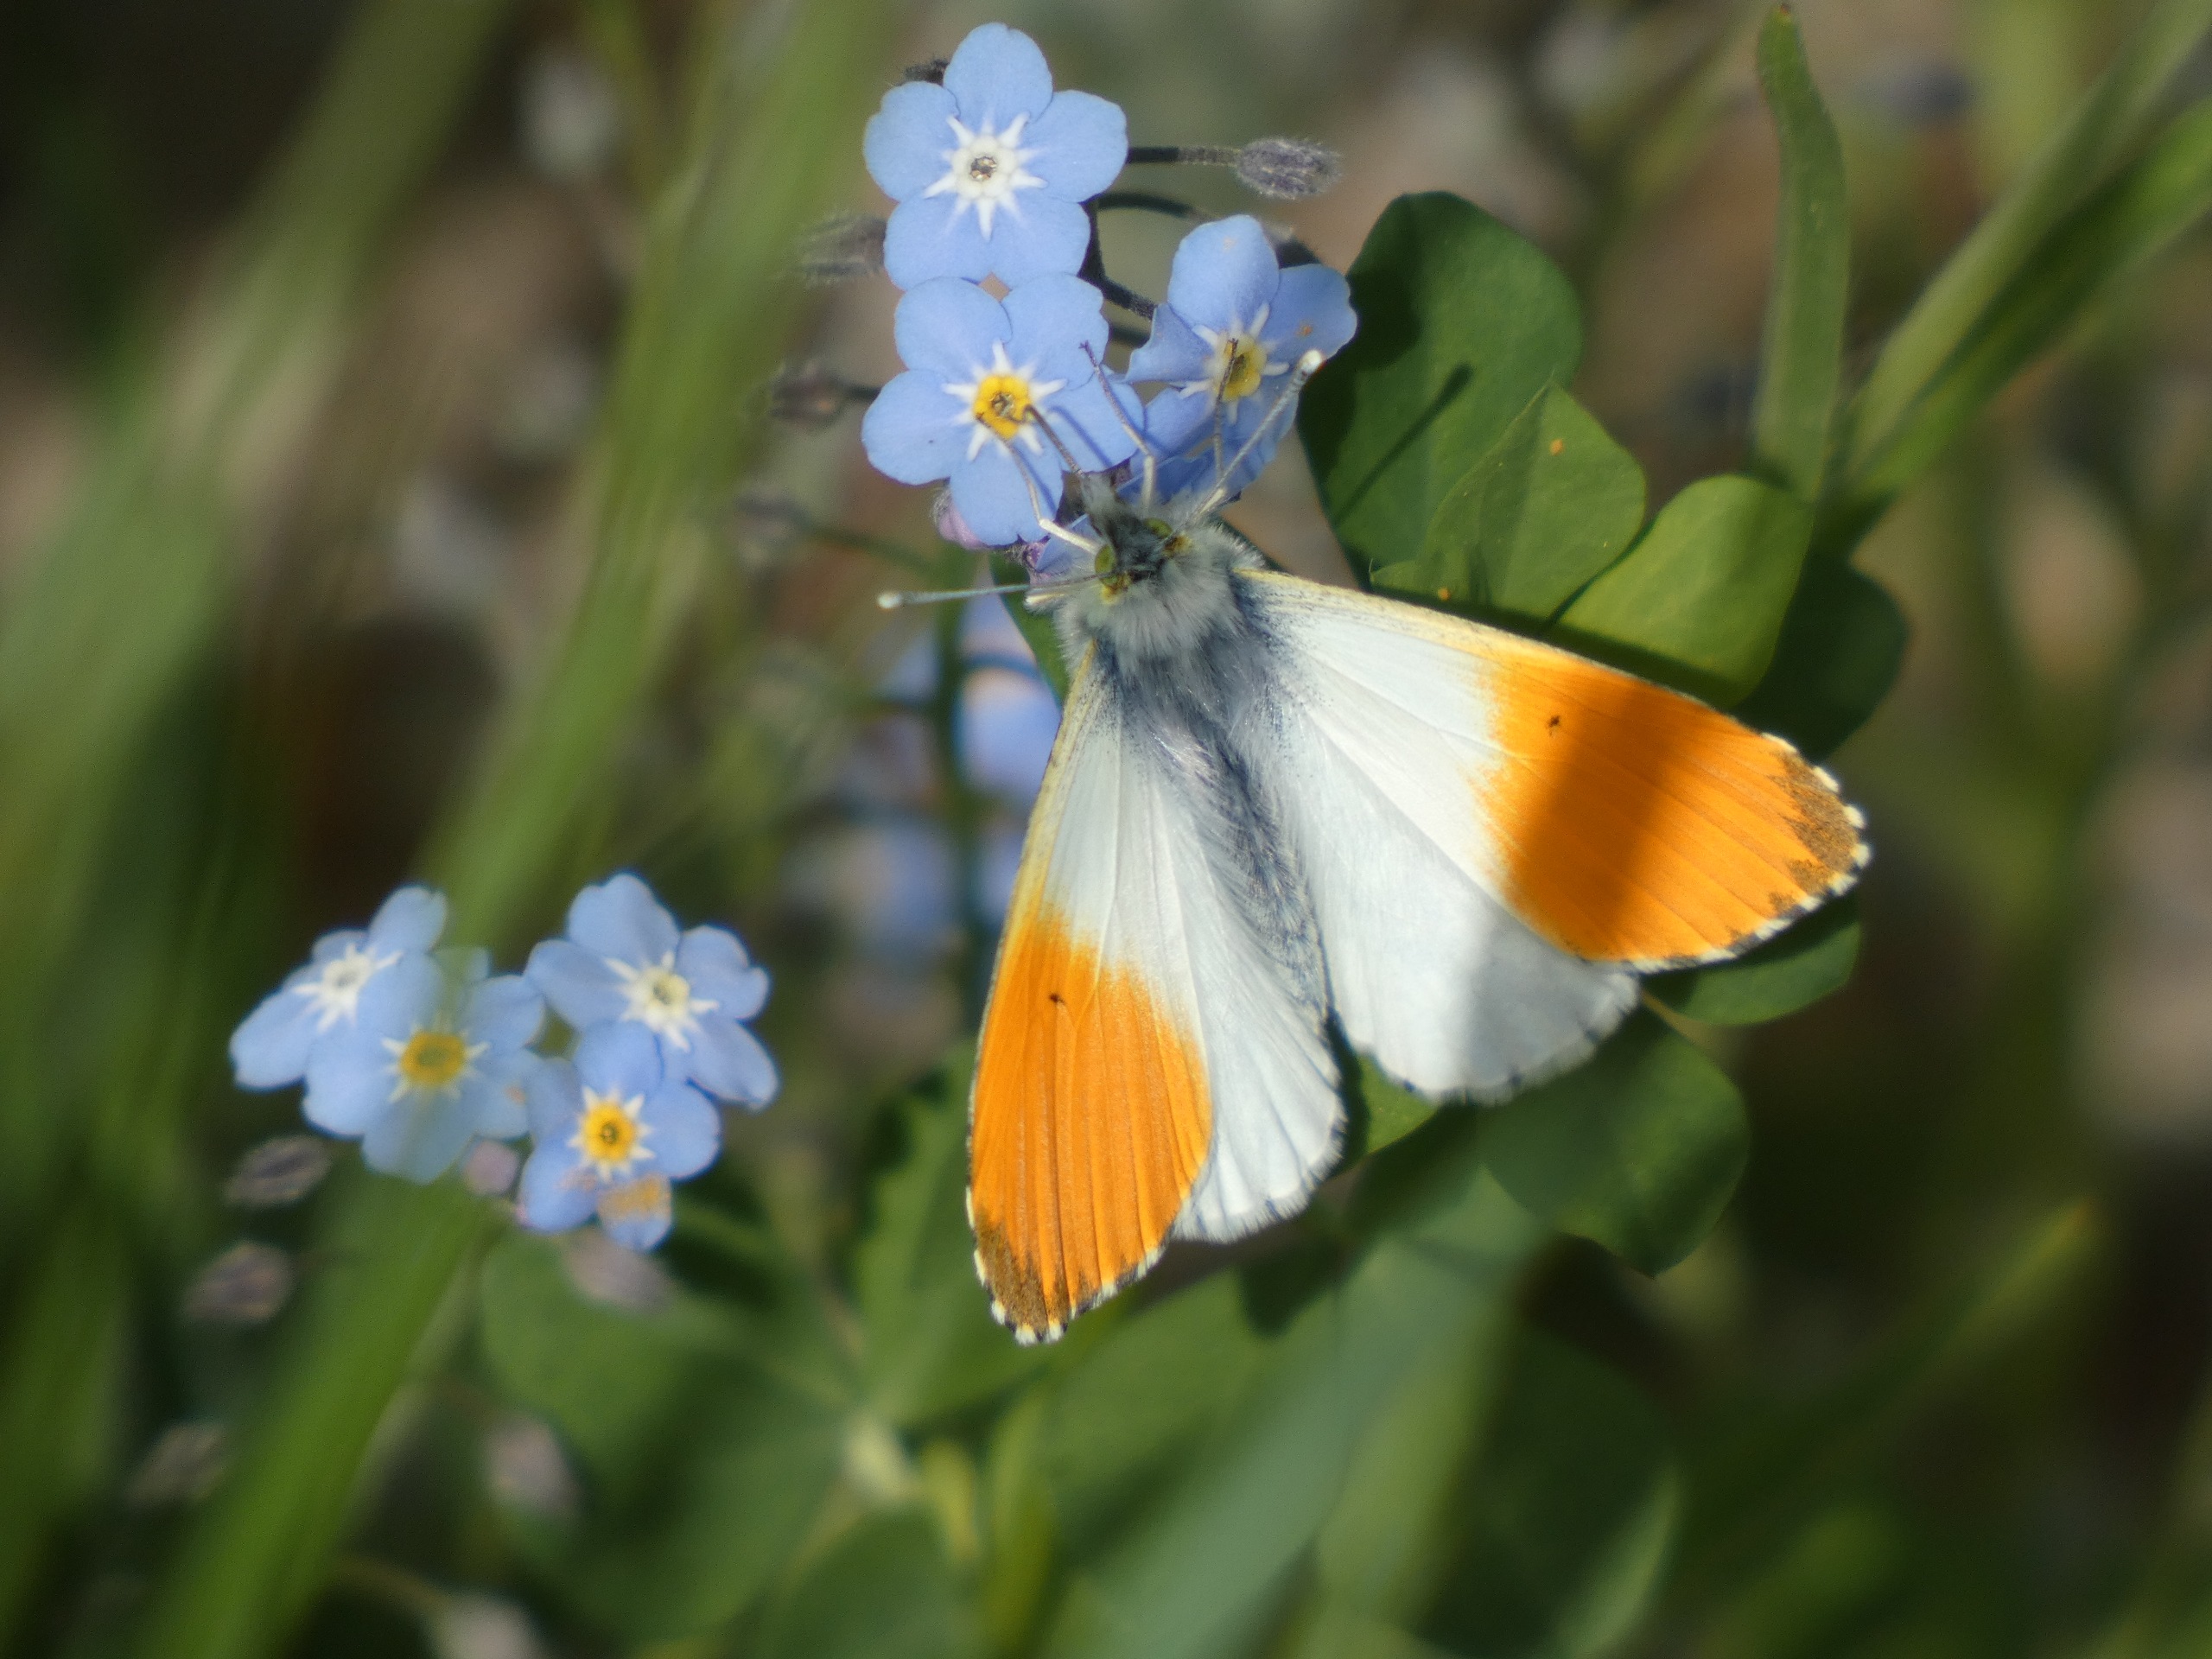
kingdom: Animalia
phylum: Arthropoda
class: Insecta
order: Lepidoptera
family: Pieridae
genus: Anthocharis
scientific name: Anthocharis cardamines
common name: Aurora
